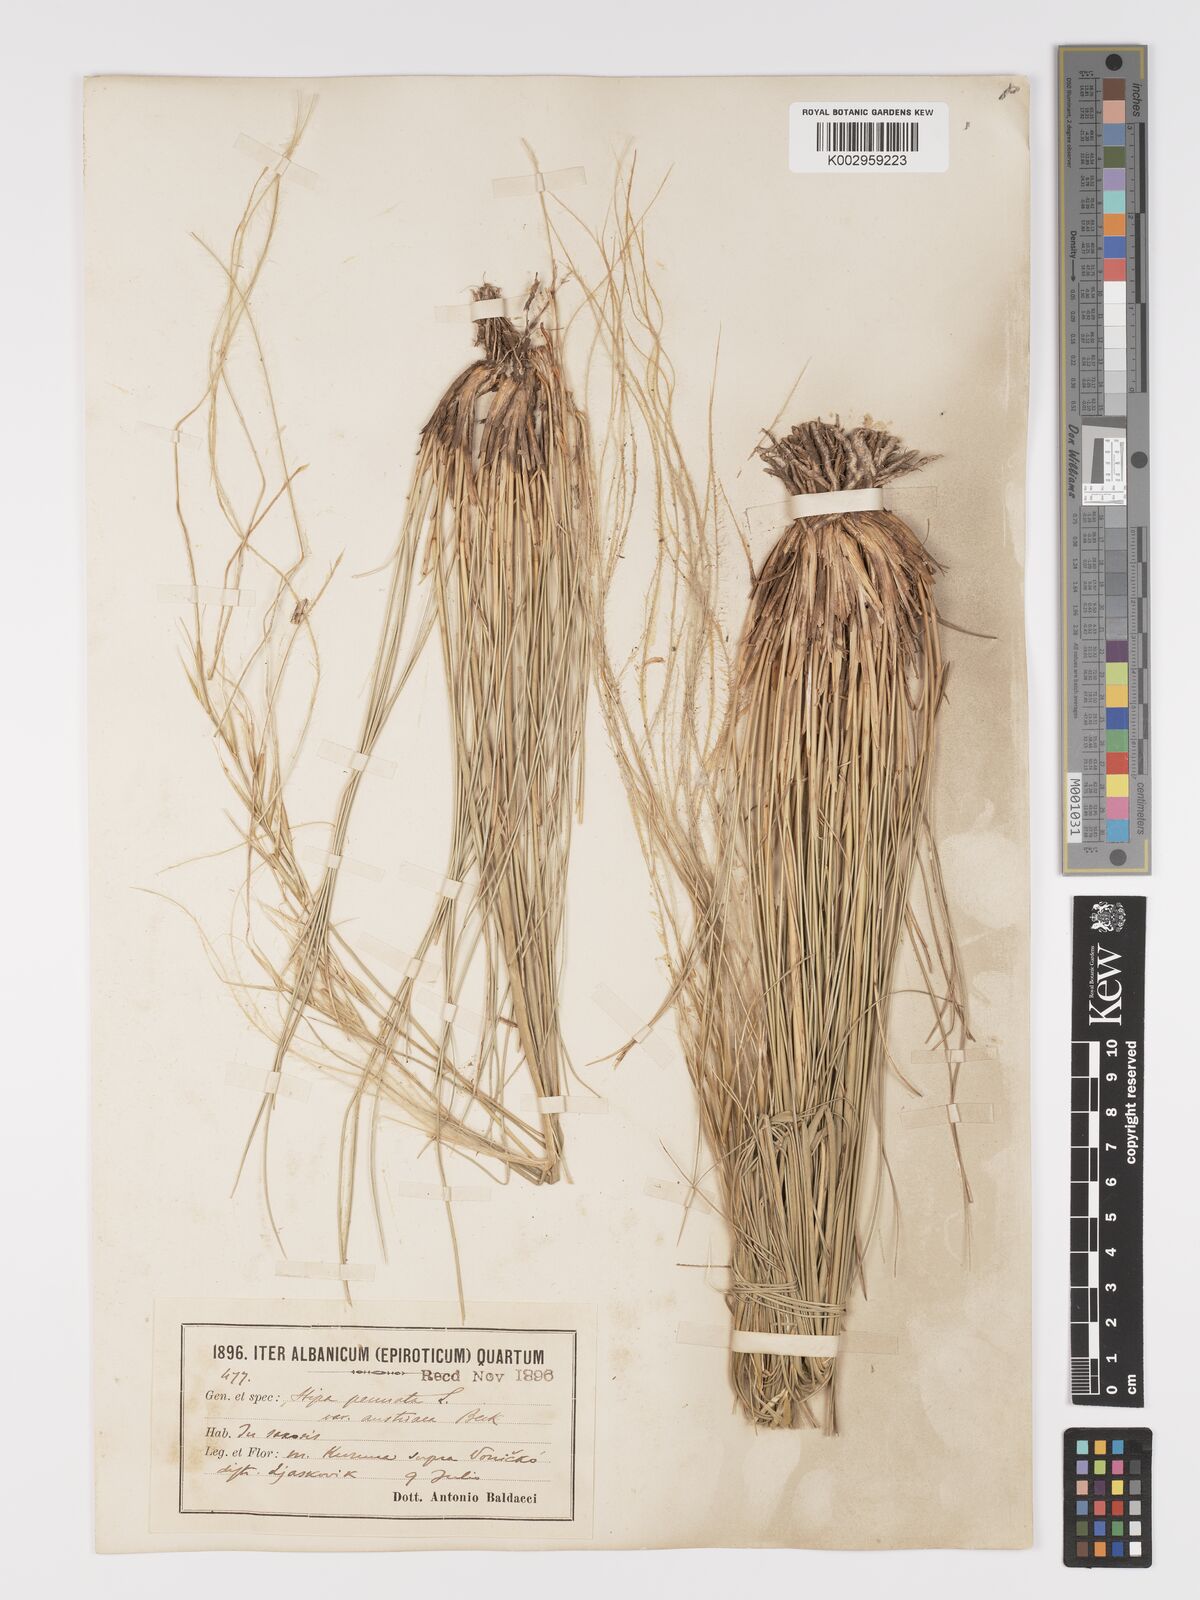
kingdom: Plantae
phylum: Tracheophyta
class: Liliopsida
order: Poales
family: Poaceae
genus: Stipa
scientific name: Stipa pennata
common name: European feather grass
